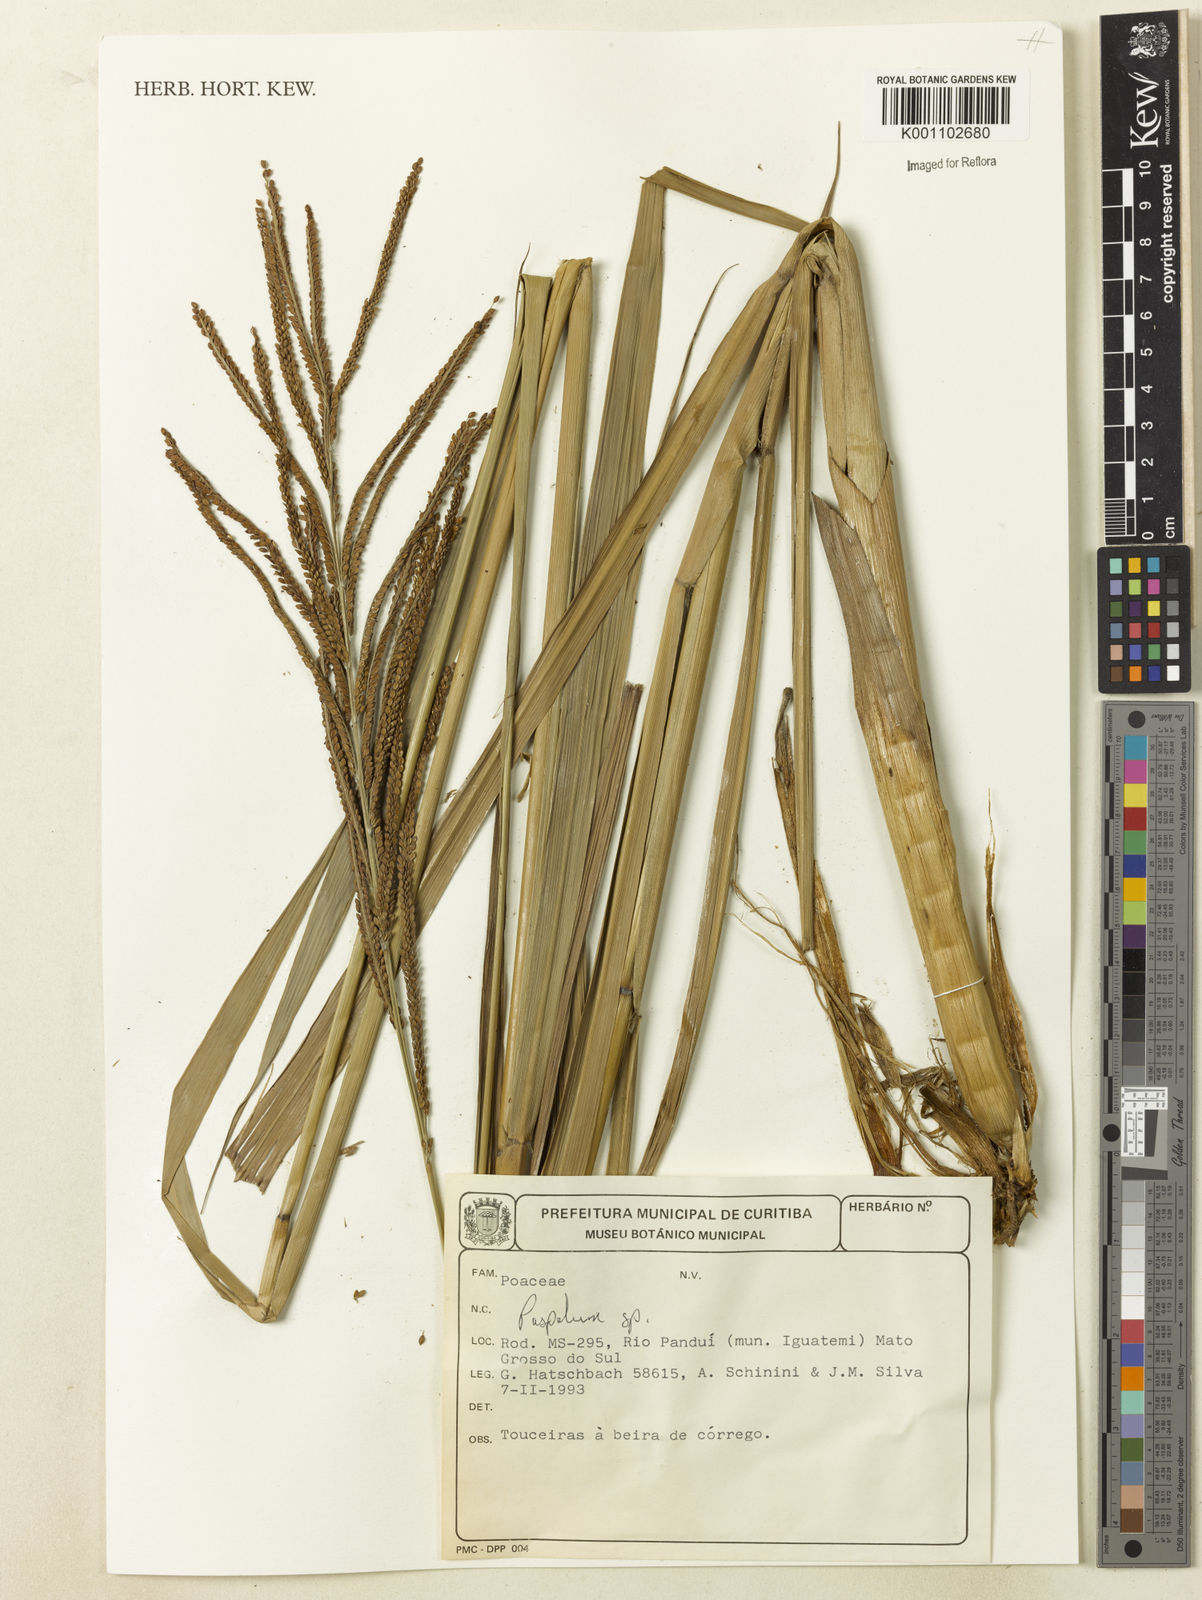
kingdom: Plantae
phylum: Tracheophyta
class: Liliopsida
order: Poales
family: Poaceae
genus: Paspalum
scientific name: Paspalum
